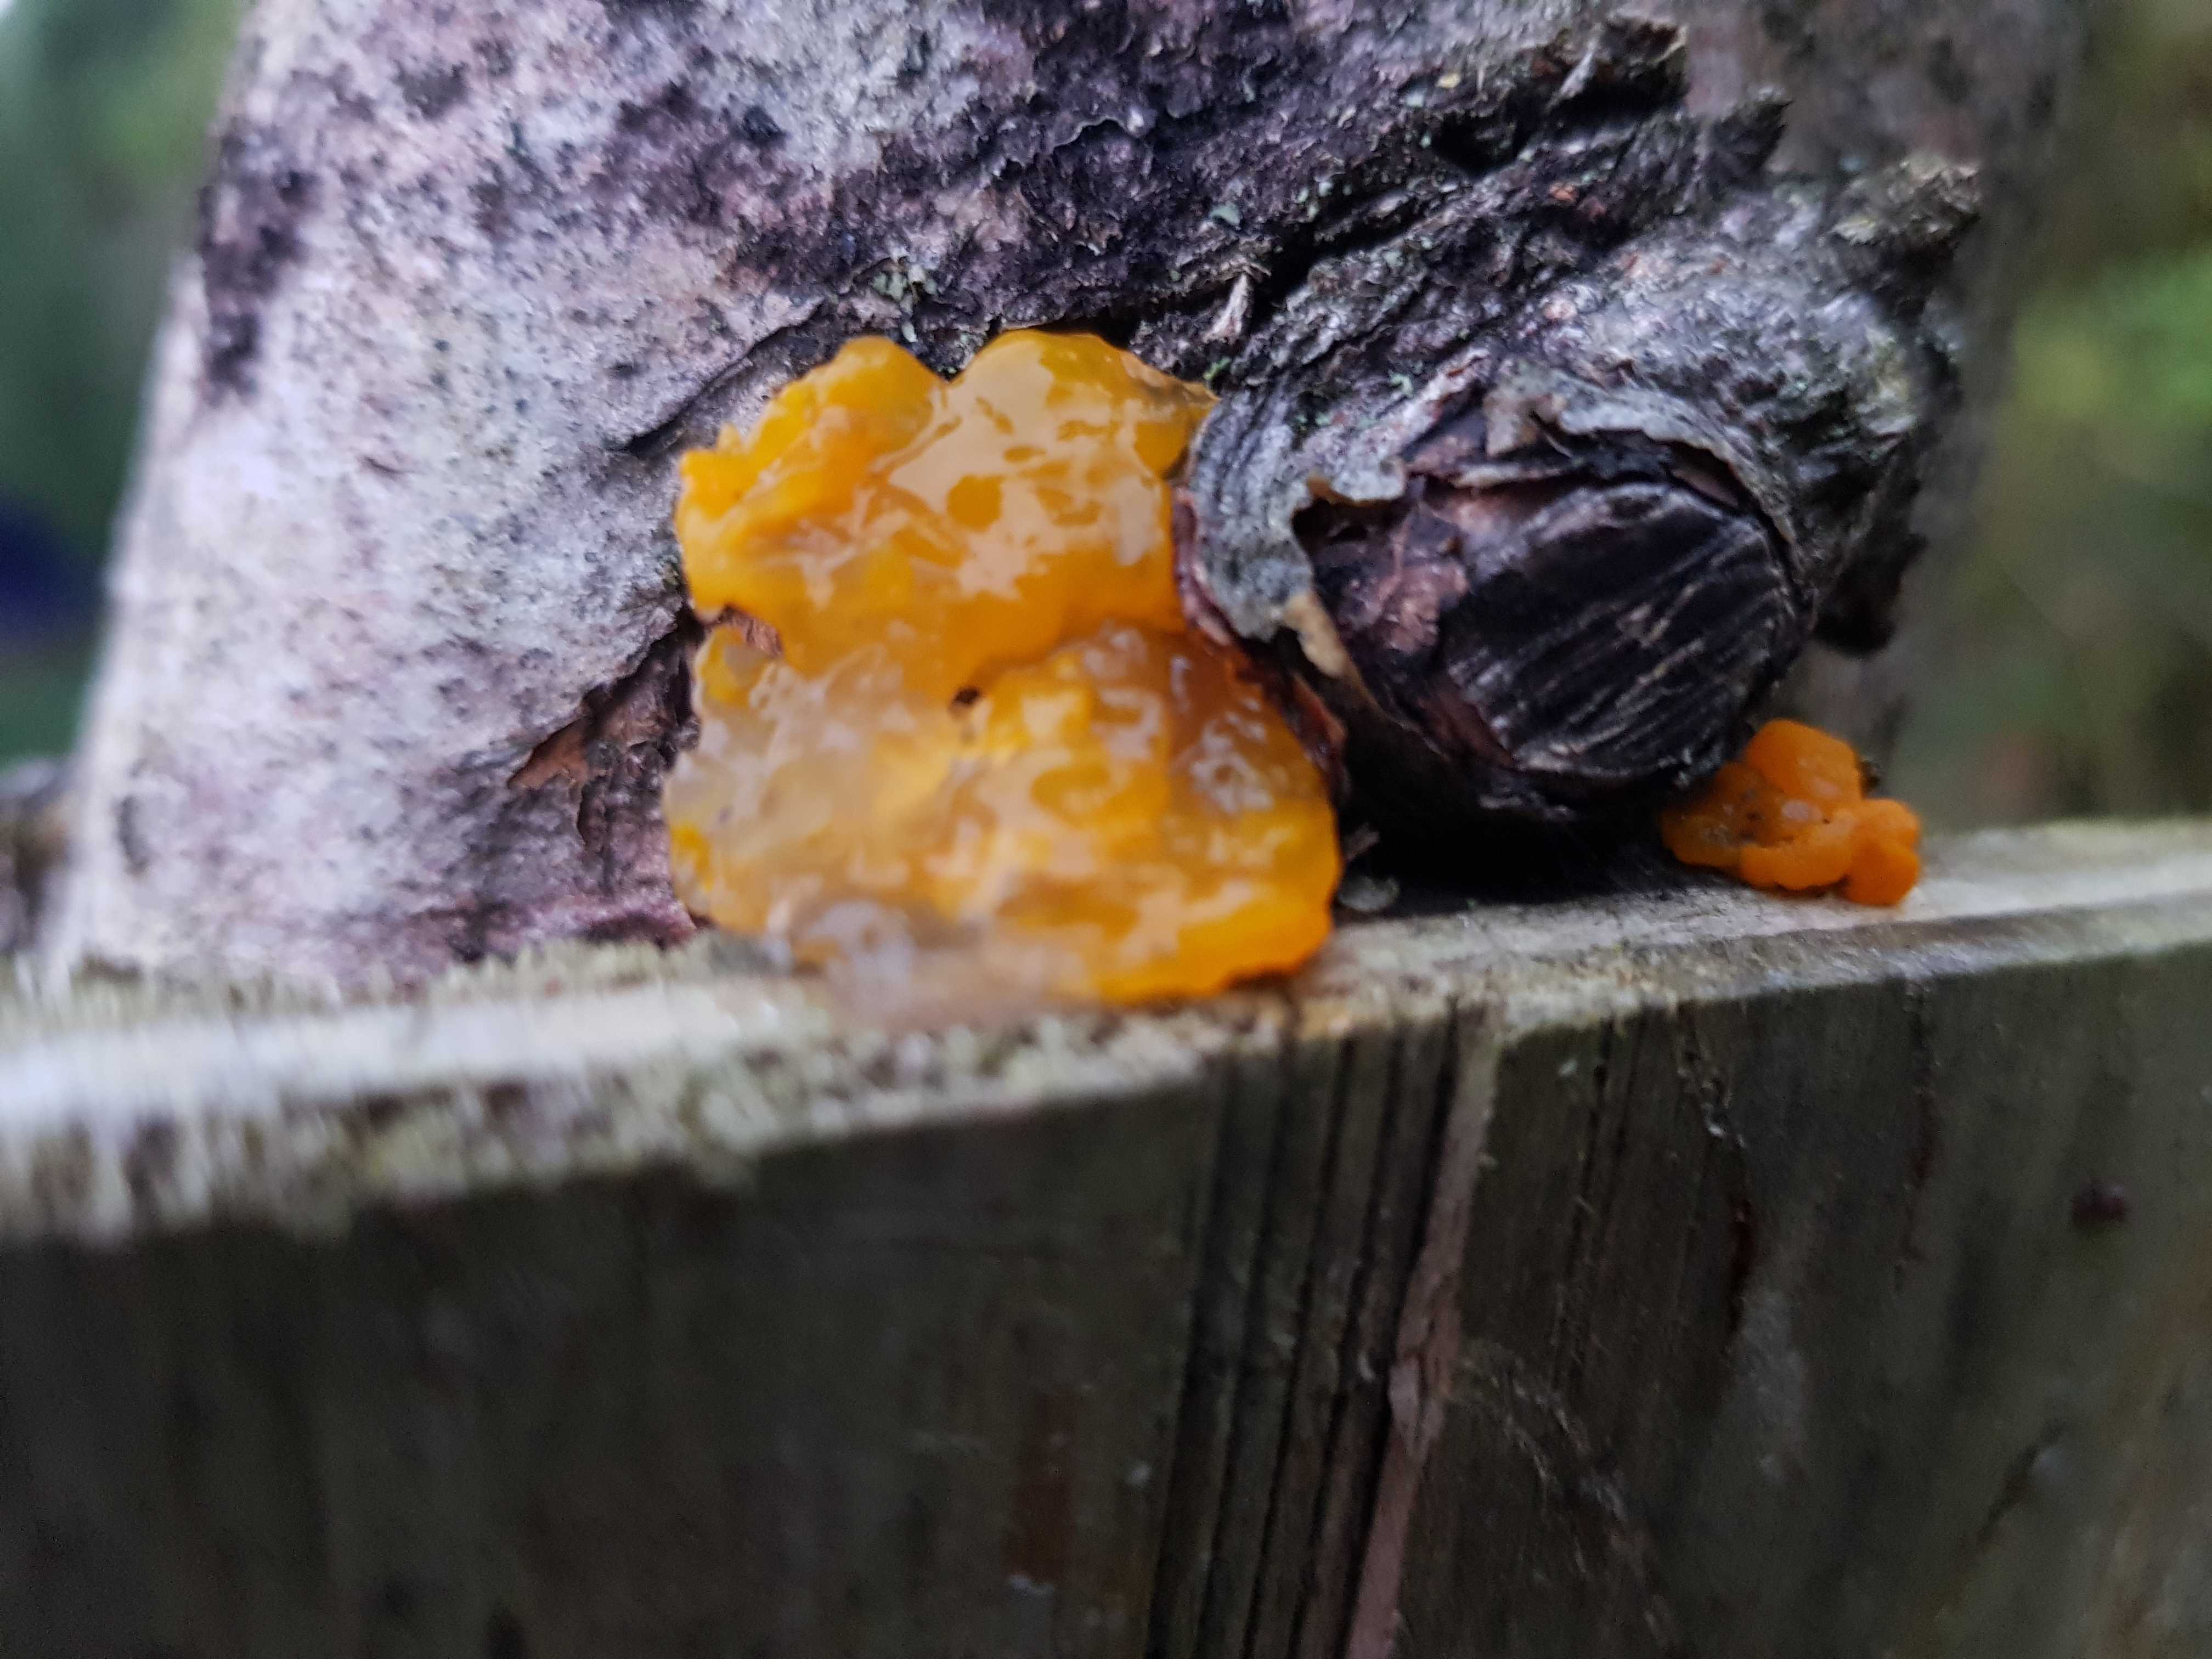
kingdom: Fungi
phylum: Basidiomycota
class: Tremellomycetes
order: Tremellales
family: Tremellaceae
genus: Tremella
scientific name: Tremella mesenterica
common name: gul bævresvamp
